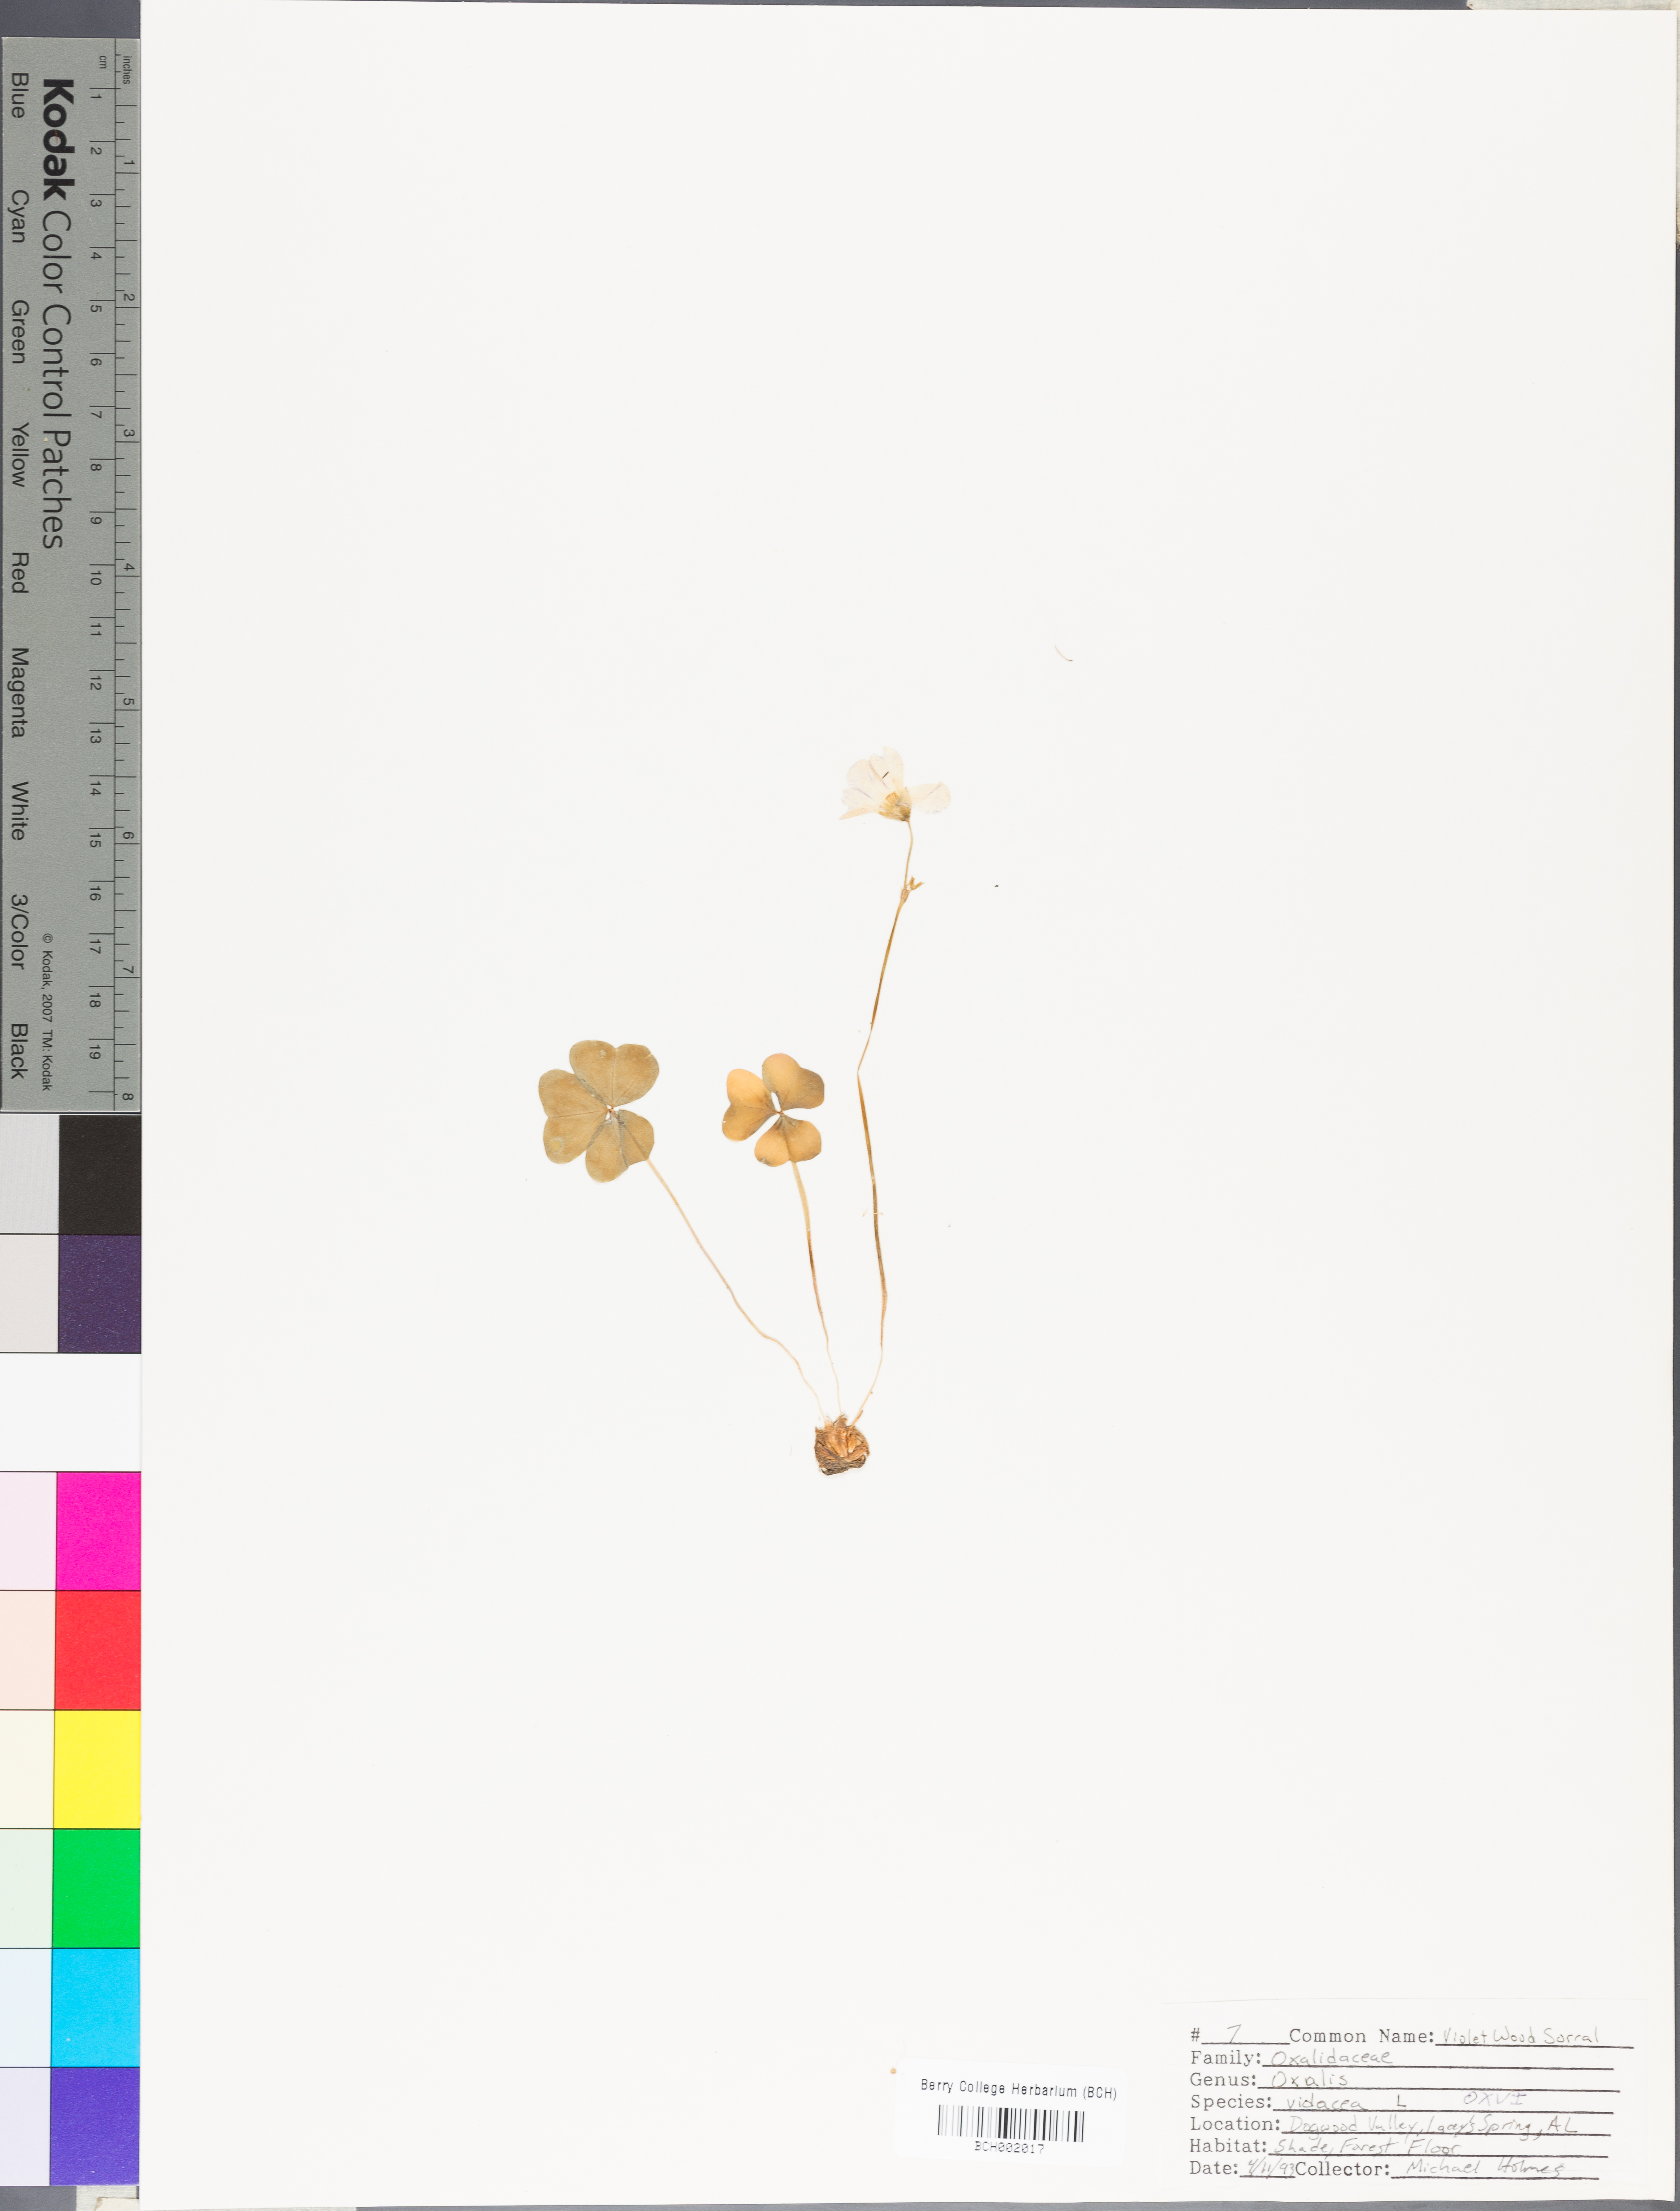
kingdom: Plantae
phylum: Tracheophyta
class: Magnoliopsida
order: Oxalidales
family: Oxalidaceae
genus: Oxalis
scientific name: Oxalis violacea
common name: Violet wood-sorrel
